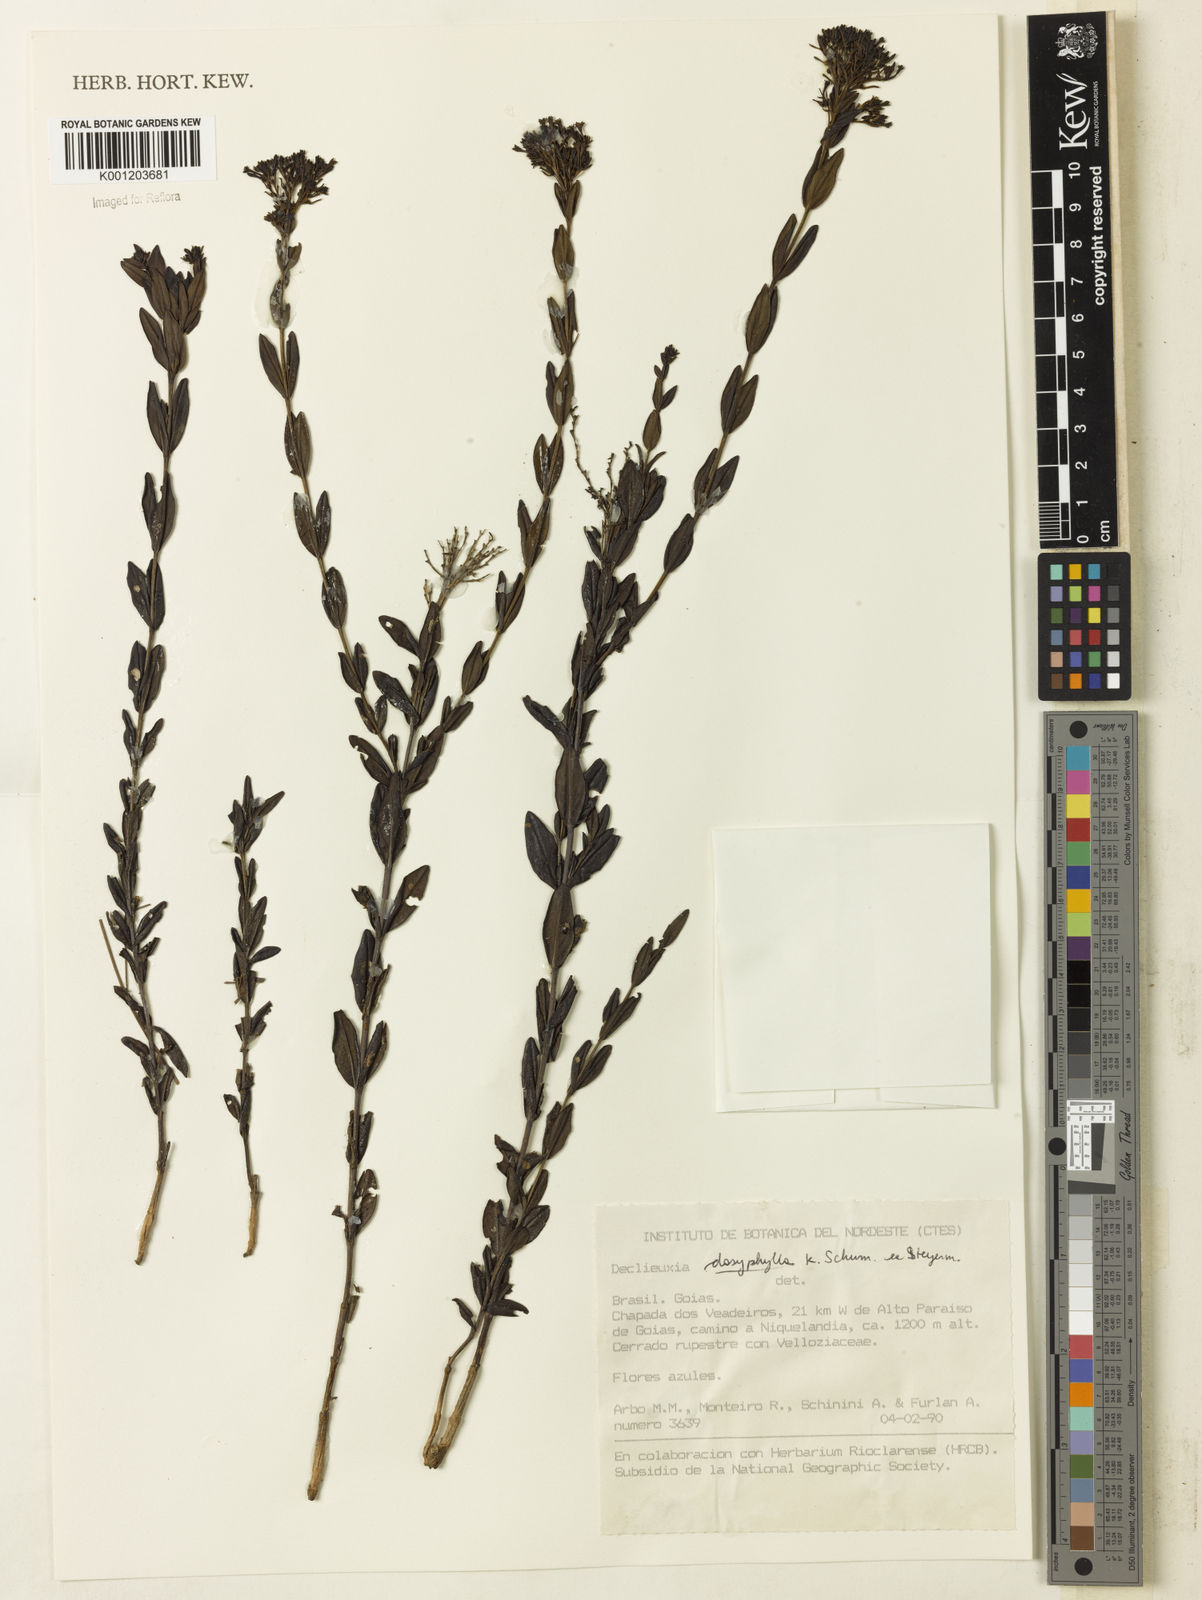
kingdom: Plantae
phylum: Tracheophyta
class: Magnoliopsida
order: Gentianales
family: Rubiaceae
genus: Declieuxia
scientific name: Declieuxia dasyphylla
